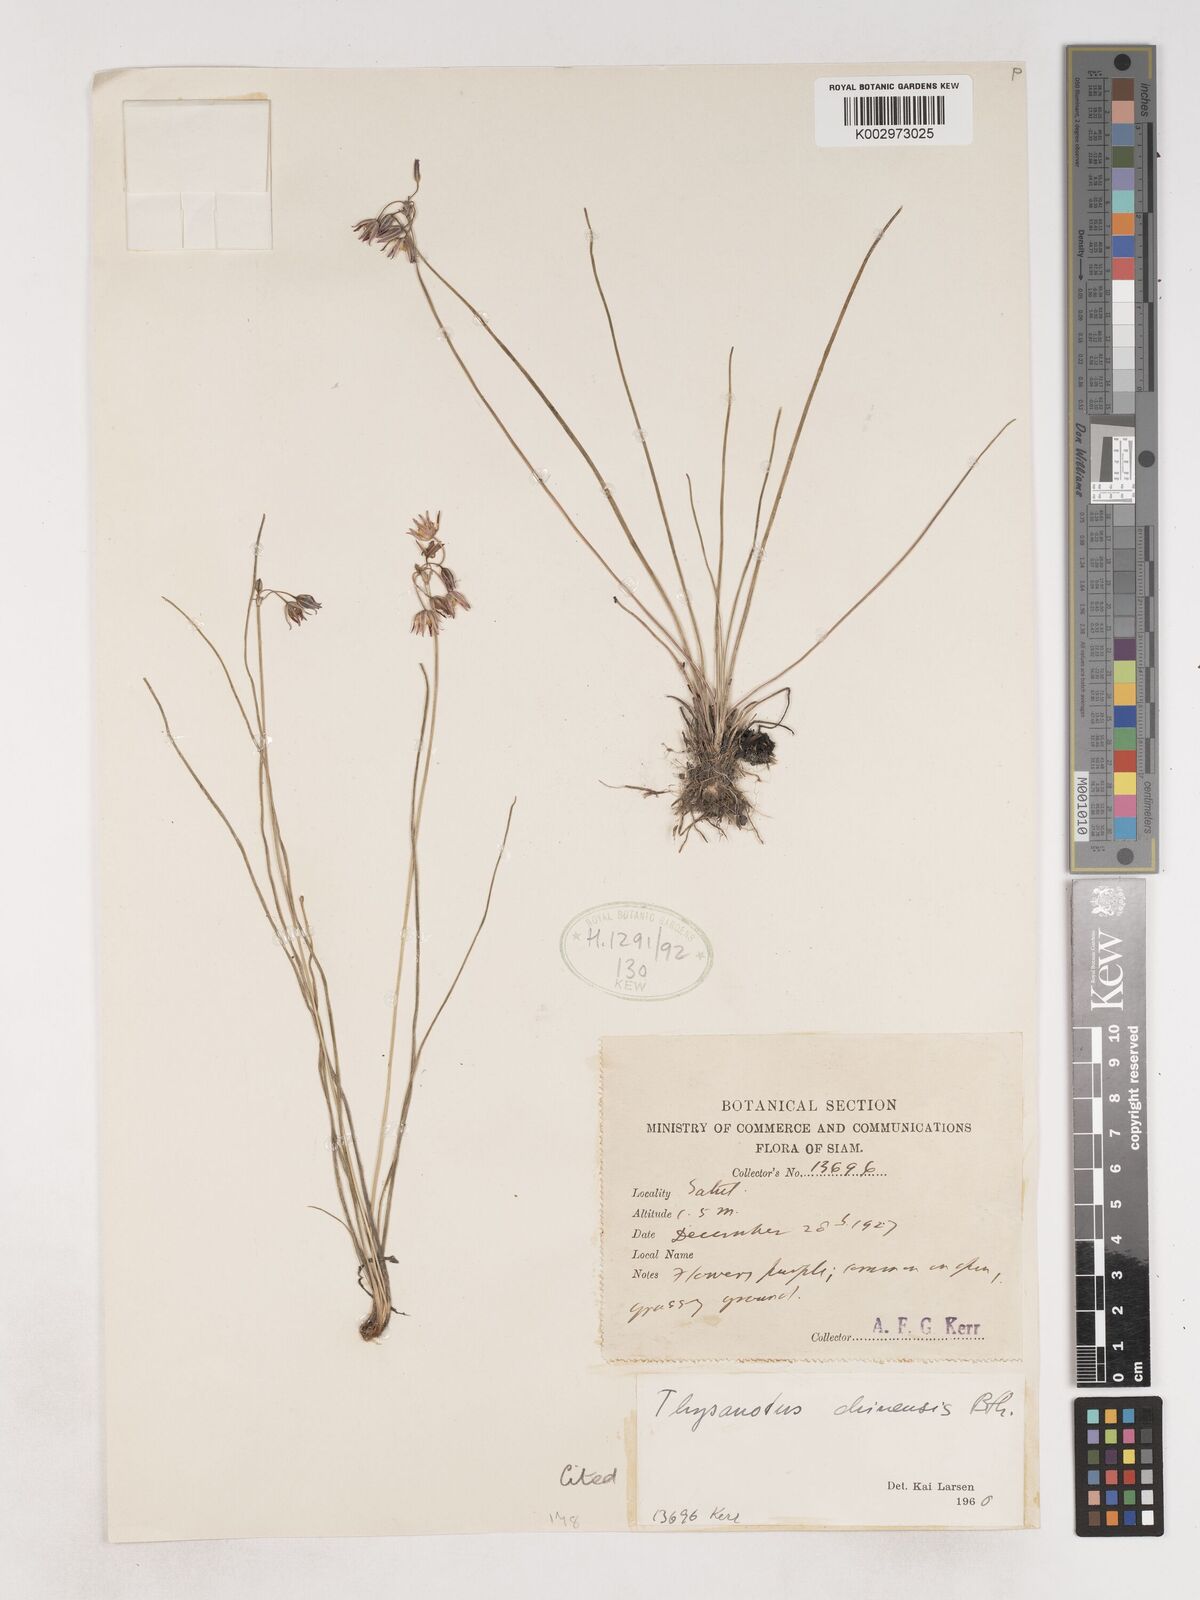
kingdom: Plantae
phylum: Tracheophyta
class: Liliopsida
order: Asparagales
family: Asparagaceae
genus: Thysanotus
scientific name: Thysanotus chinensis
